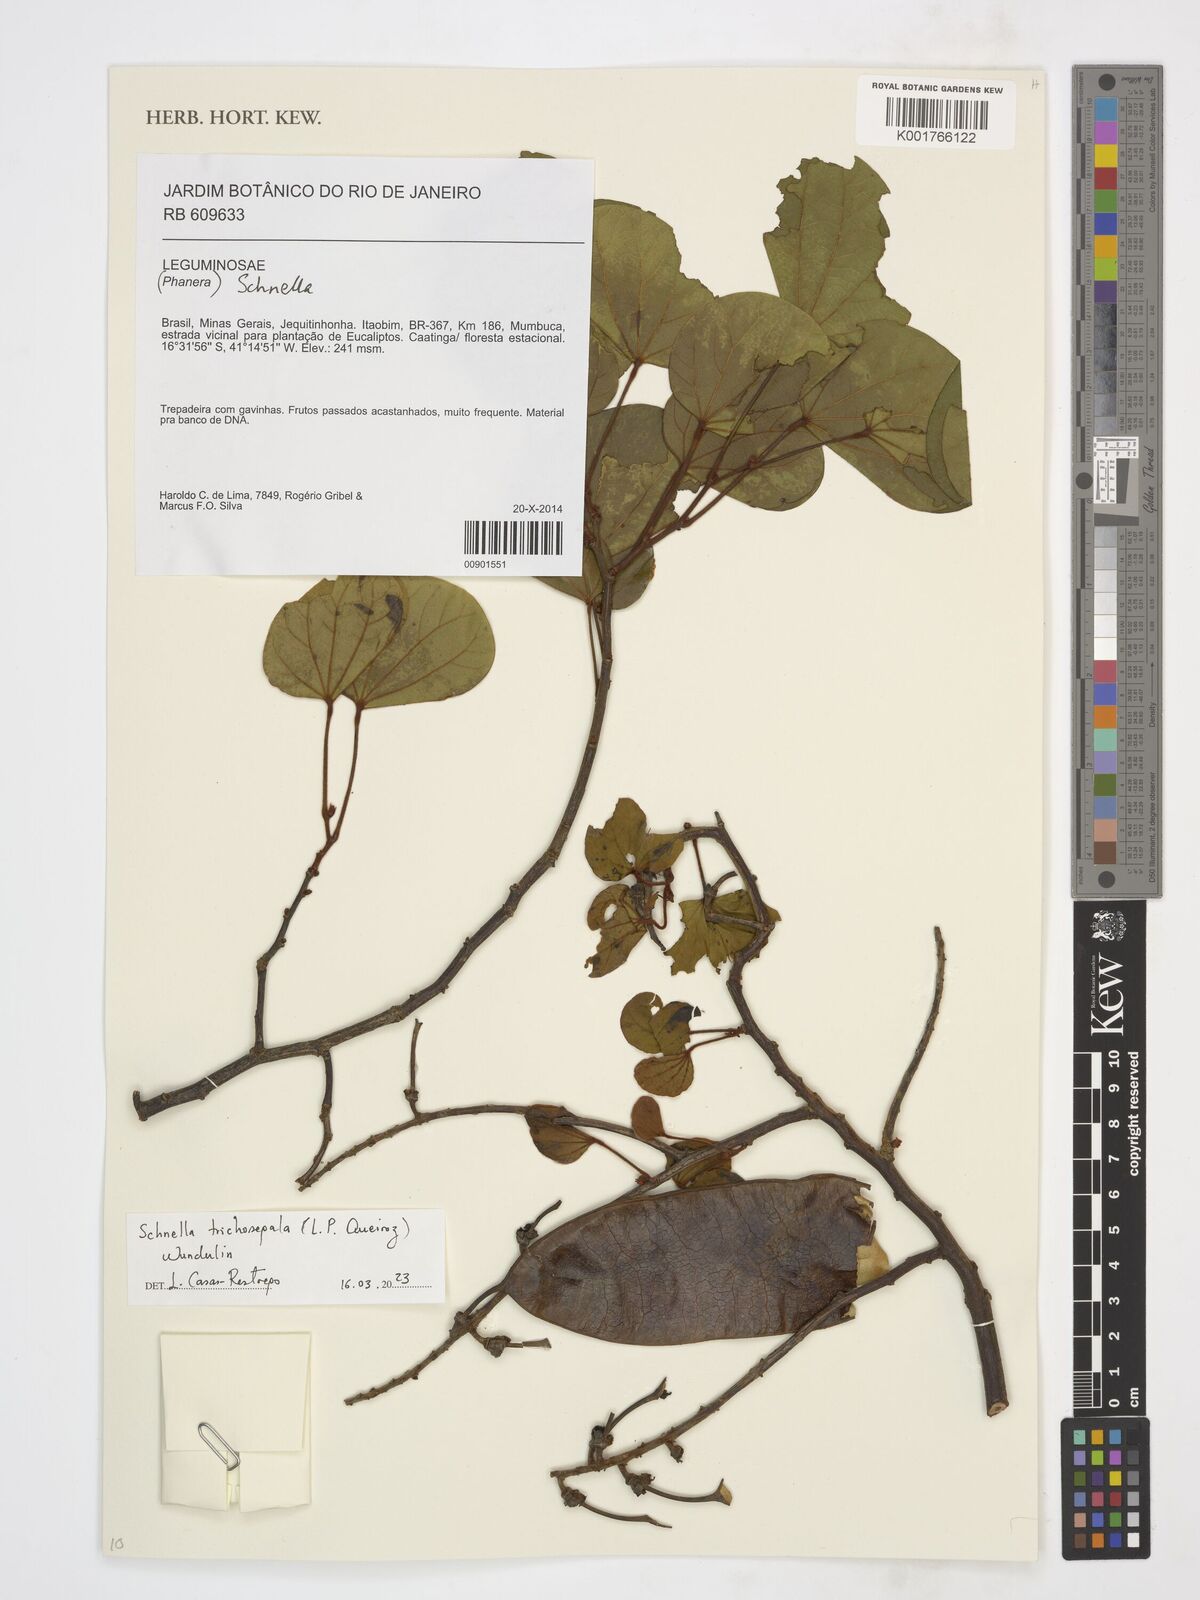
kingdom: Plantae
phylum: Tracheophyta
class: Magnoliopsida
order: Fabales
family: Fabaceae
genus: Schnella
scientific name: Schnella trichosepala
